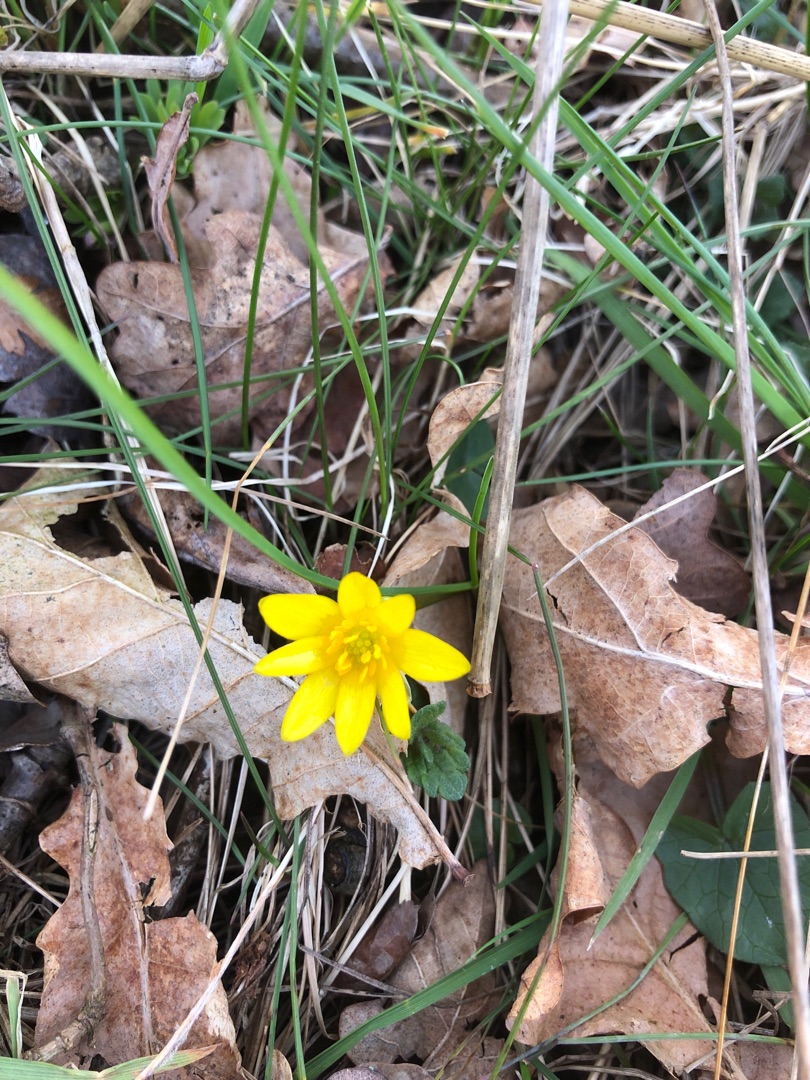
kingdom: Plantae
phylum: Tracheophyta
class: Magnoliopsida
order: Ranunculales
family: Ranunculaceae
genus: Ficaria
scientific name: Ficaria verna
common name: Vorterod
